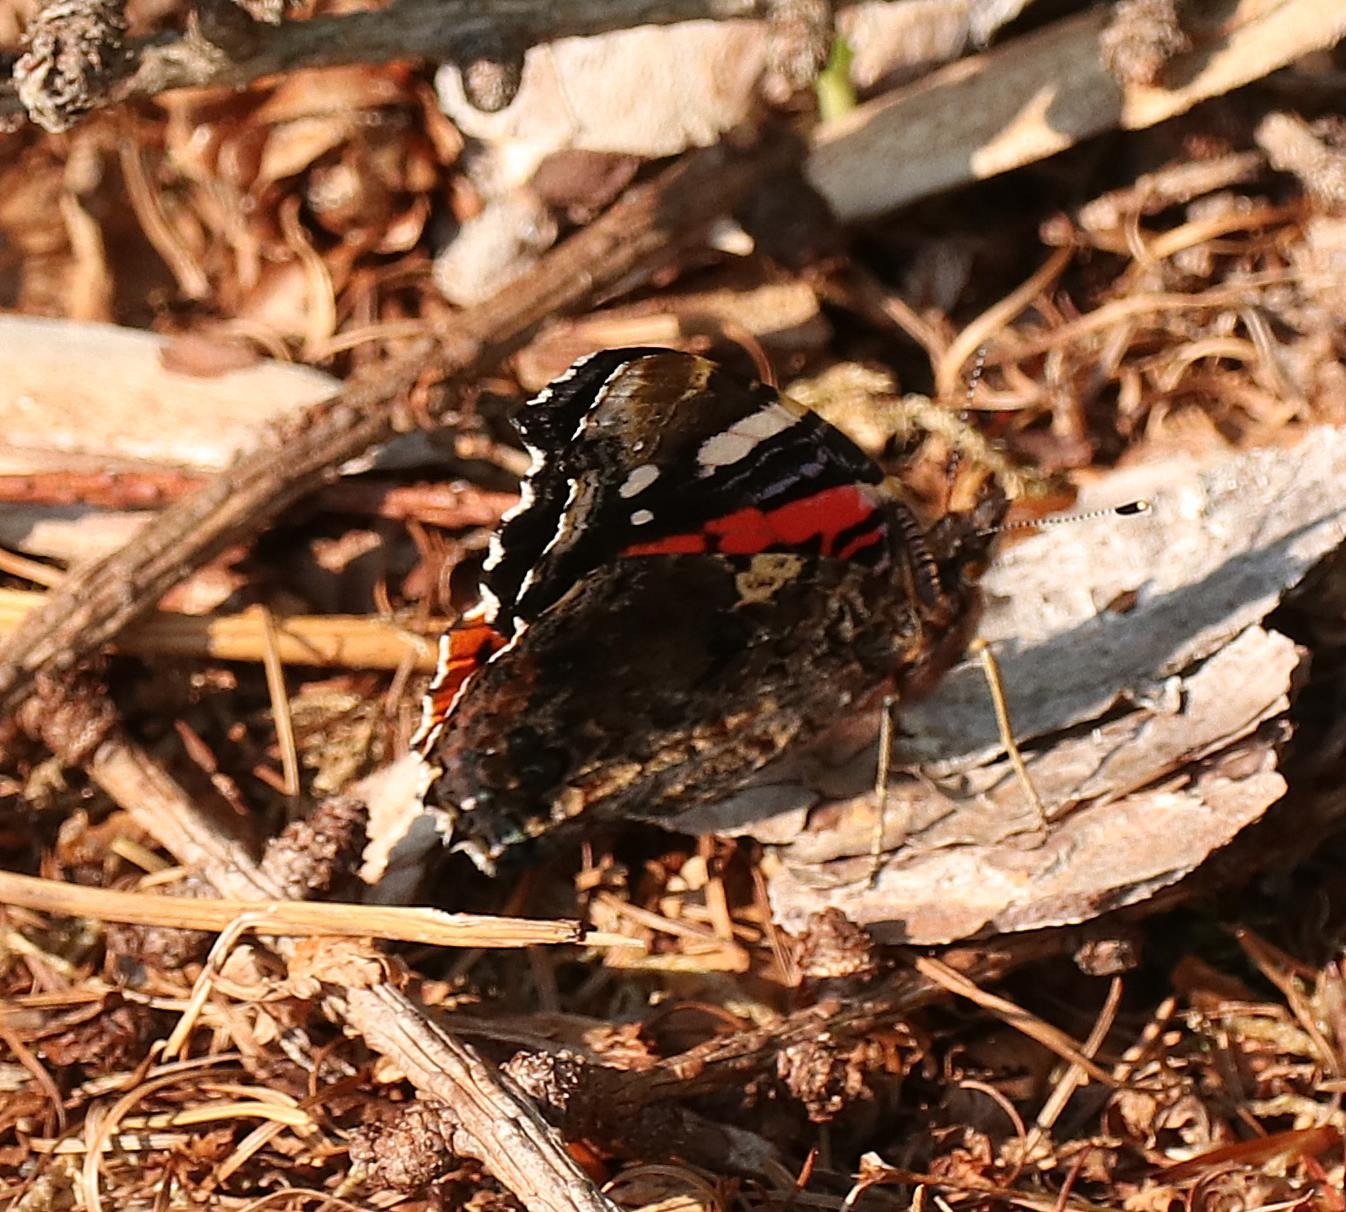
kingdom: Animalia
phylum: Arthropoda
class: Insecta
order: Lepidoptera
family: Nymphalidae
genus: Vanessa
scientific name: Vanessa atalanta
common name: Admiral
